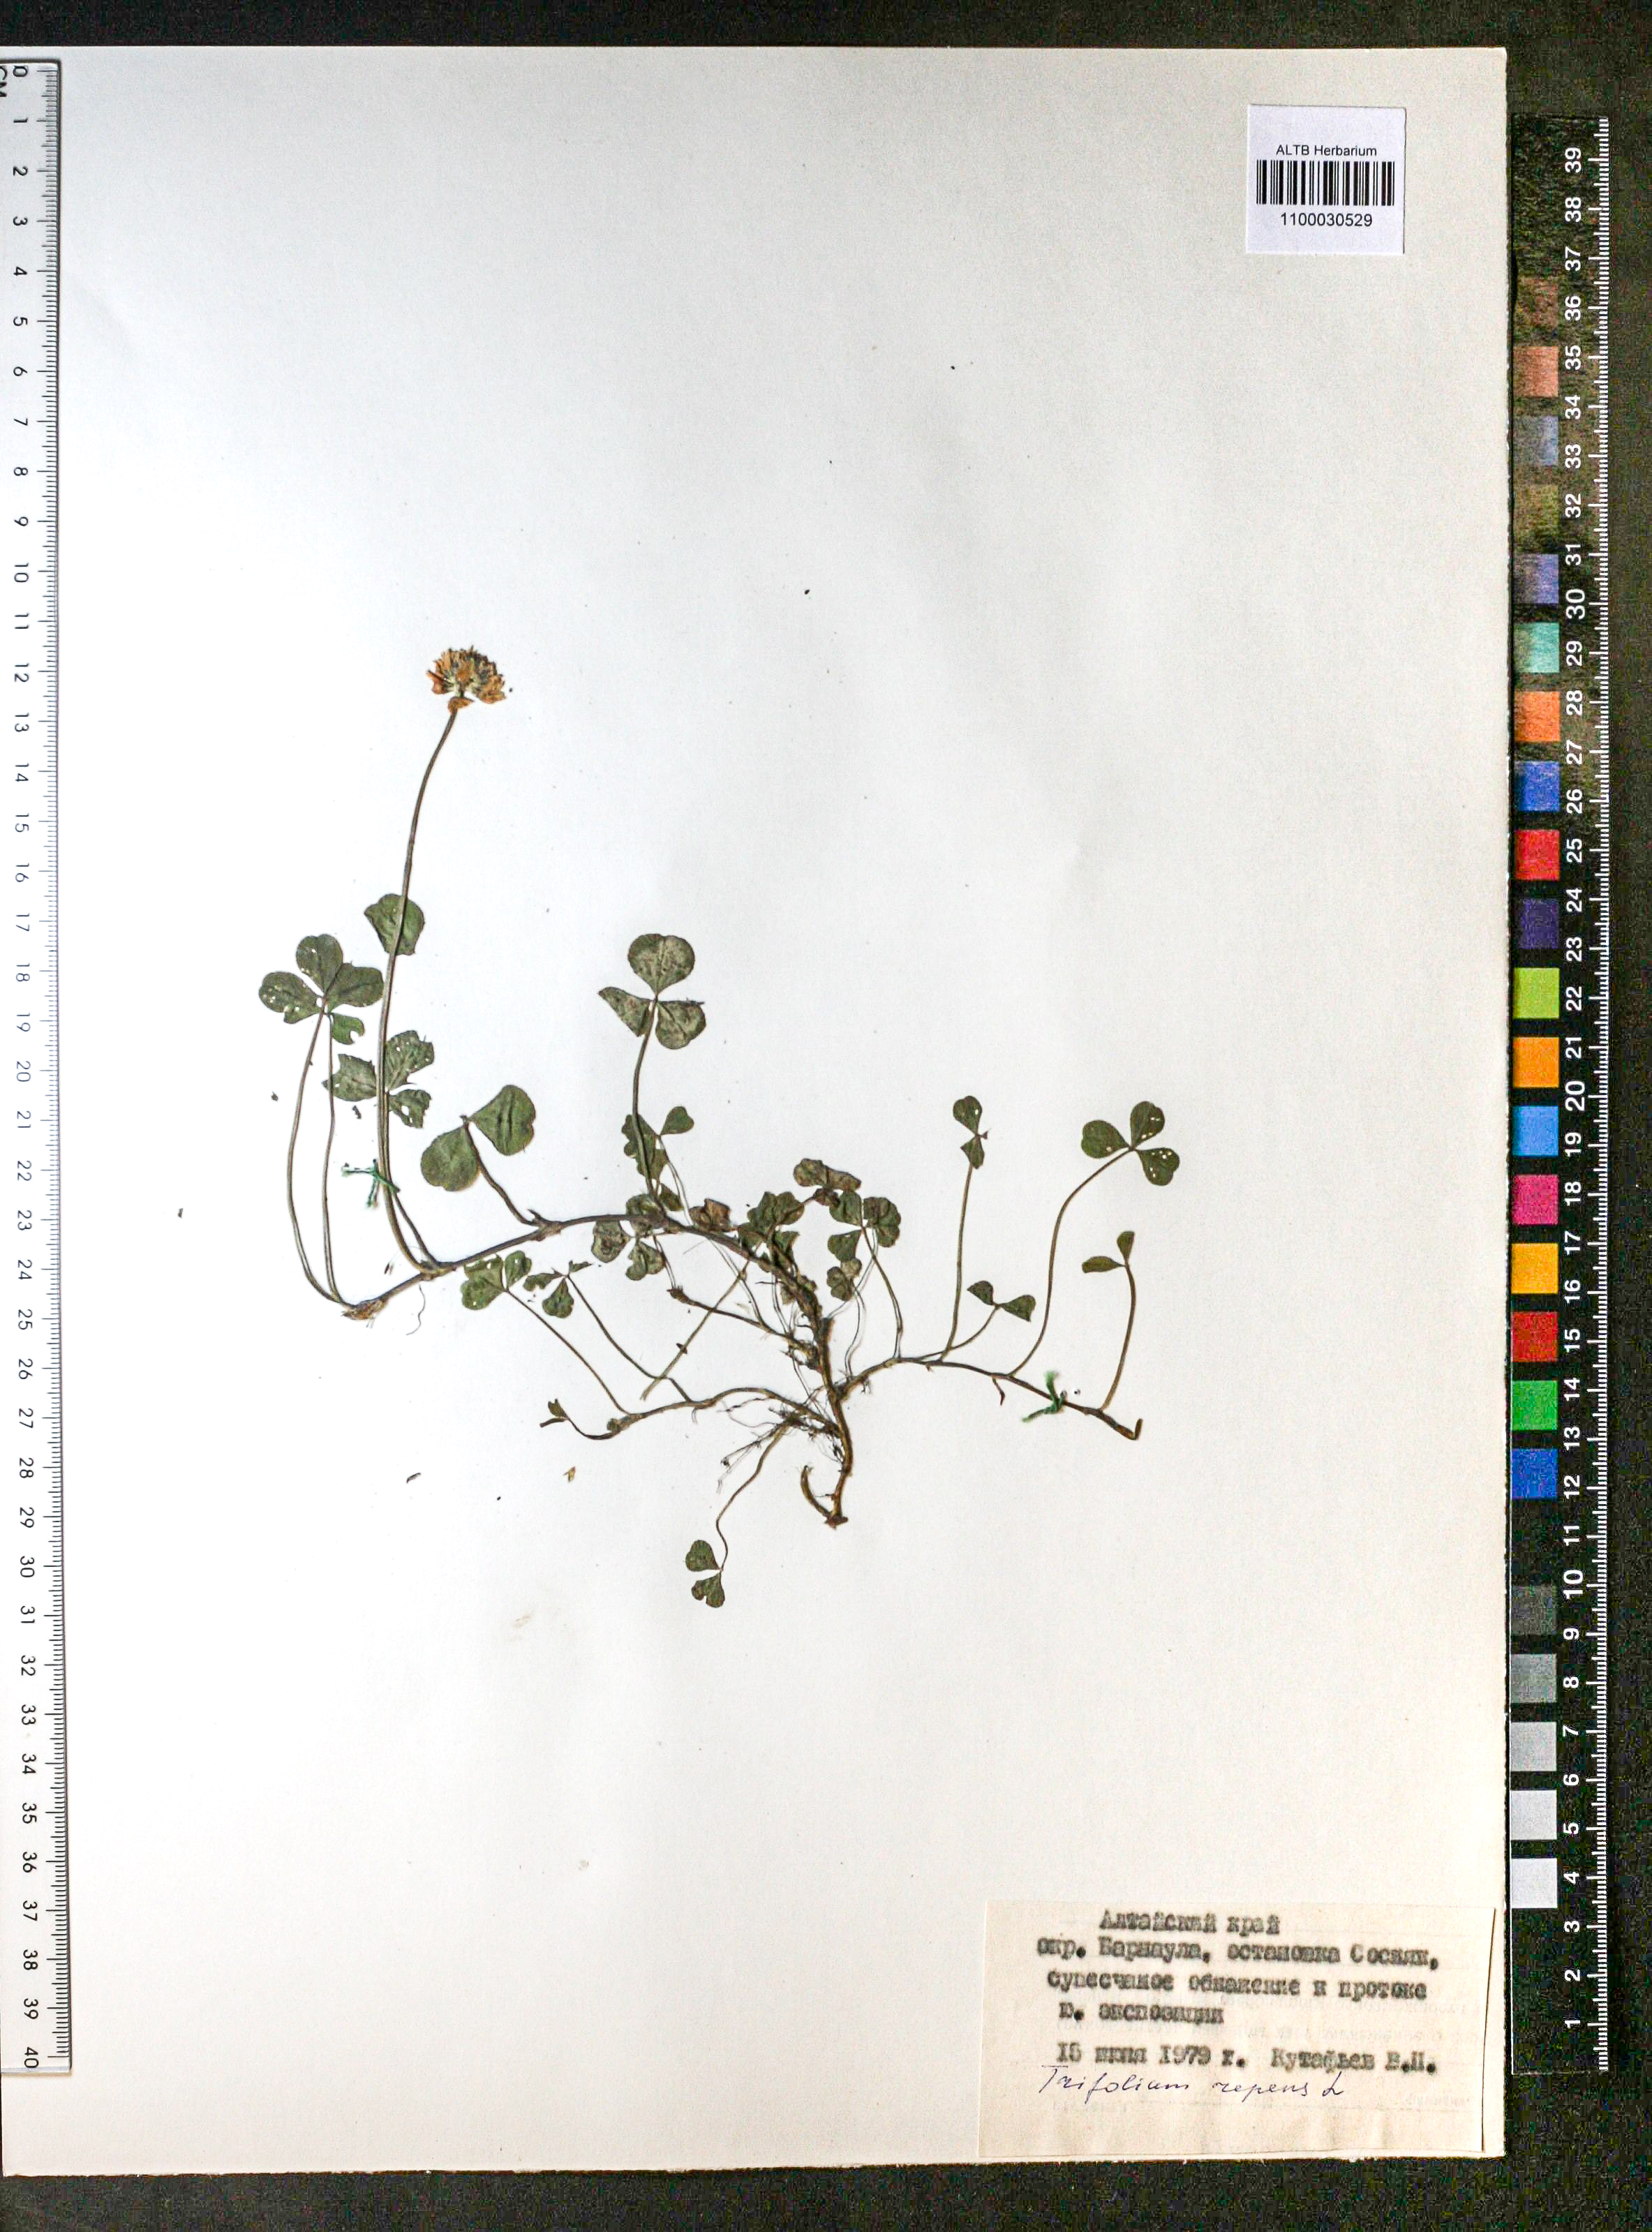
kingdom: Plantae
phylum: Tracheophyta
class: Magnoliopsida
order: Fabales
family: Fabaceae
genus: Trifolium
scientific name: Trifolium repens
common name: White clover
